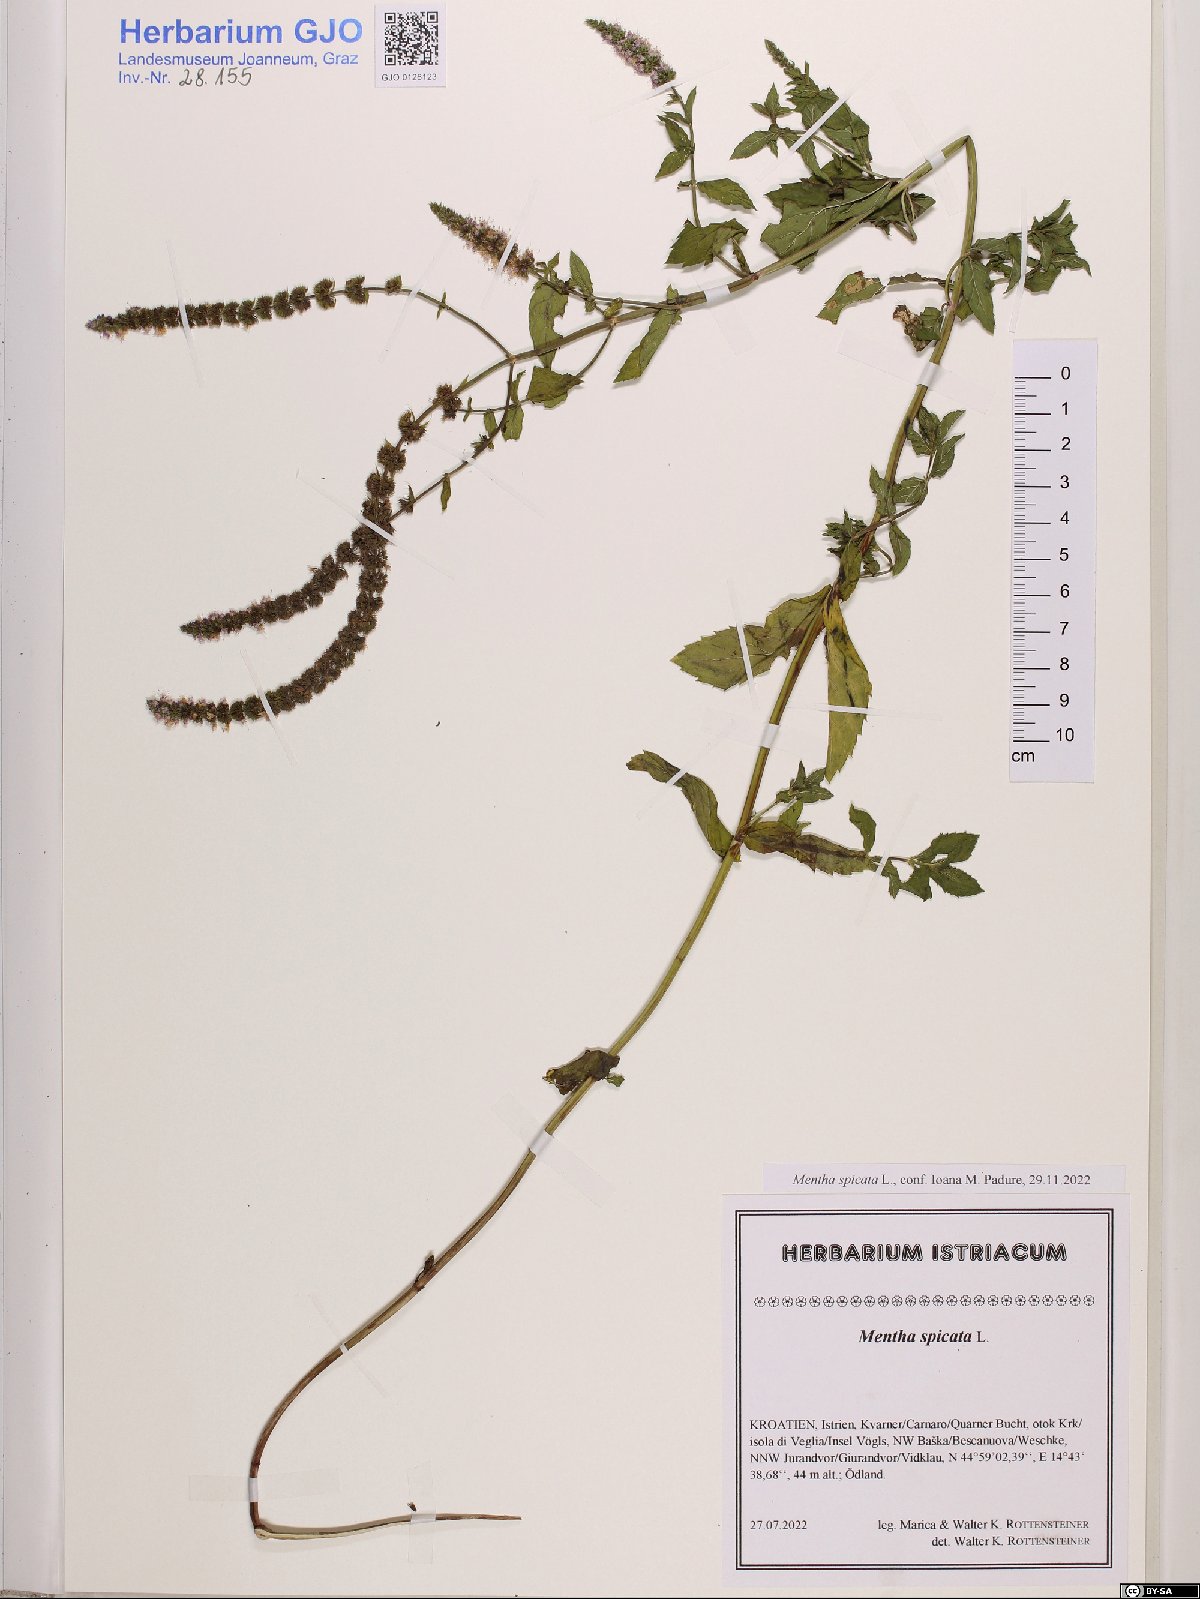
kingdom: Plantae
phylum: Tracheophyta
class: Magnoliopsida
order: Lamiales
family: Lamiaceae
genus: Mentha
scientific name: Mentha spicata
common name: Spearmint
